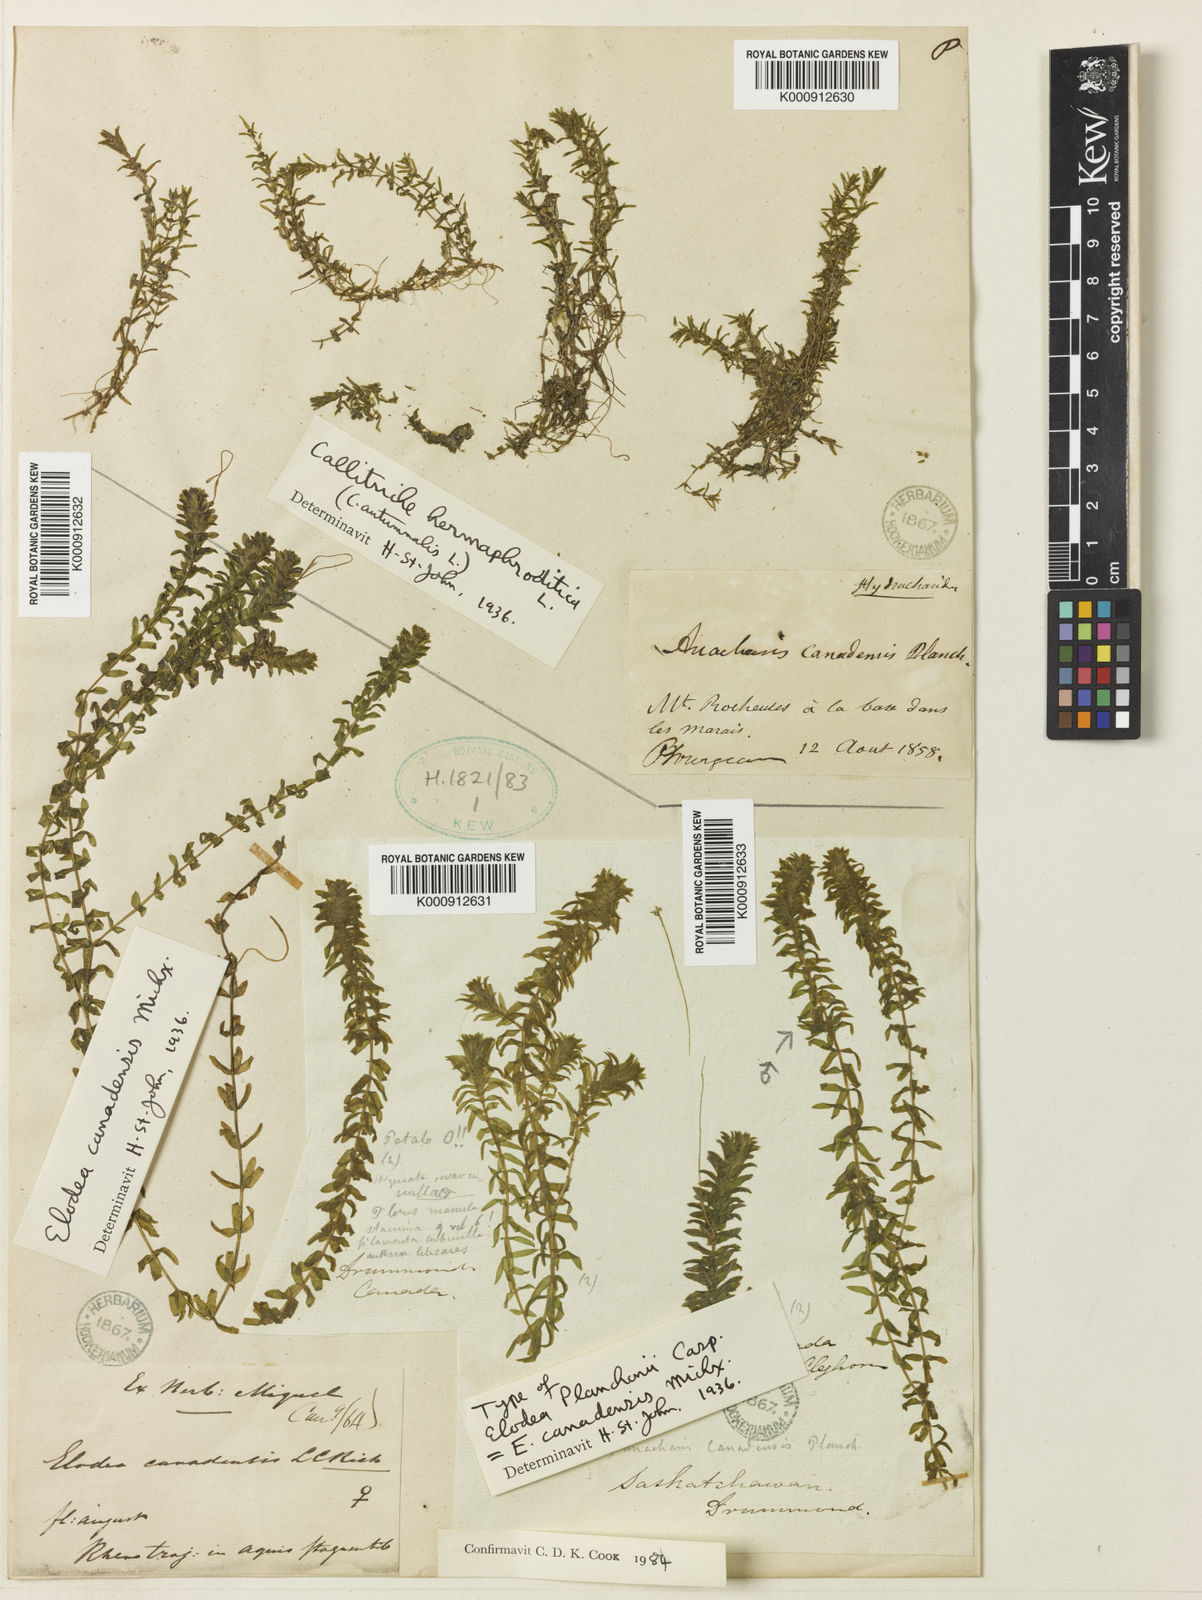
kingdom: Plantae
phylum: Tracheophyta
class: Liliopsida
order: Alismatales
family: Hydrocharitaceae
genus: Elodea
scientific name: Elodea canadensis
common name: Canadian waterweed
